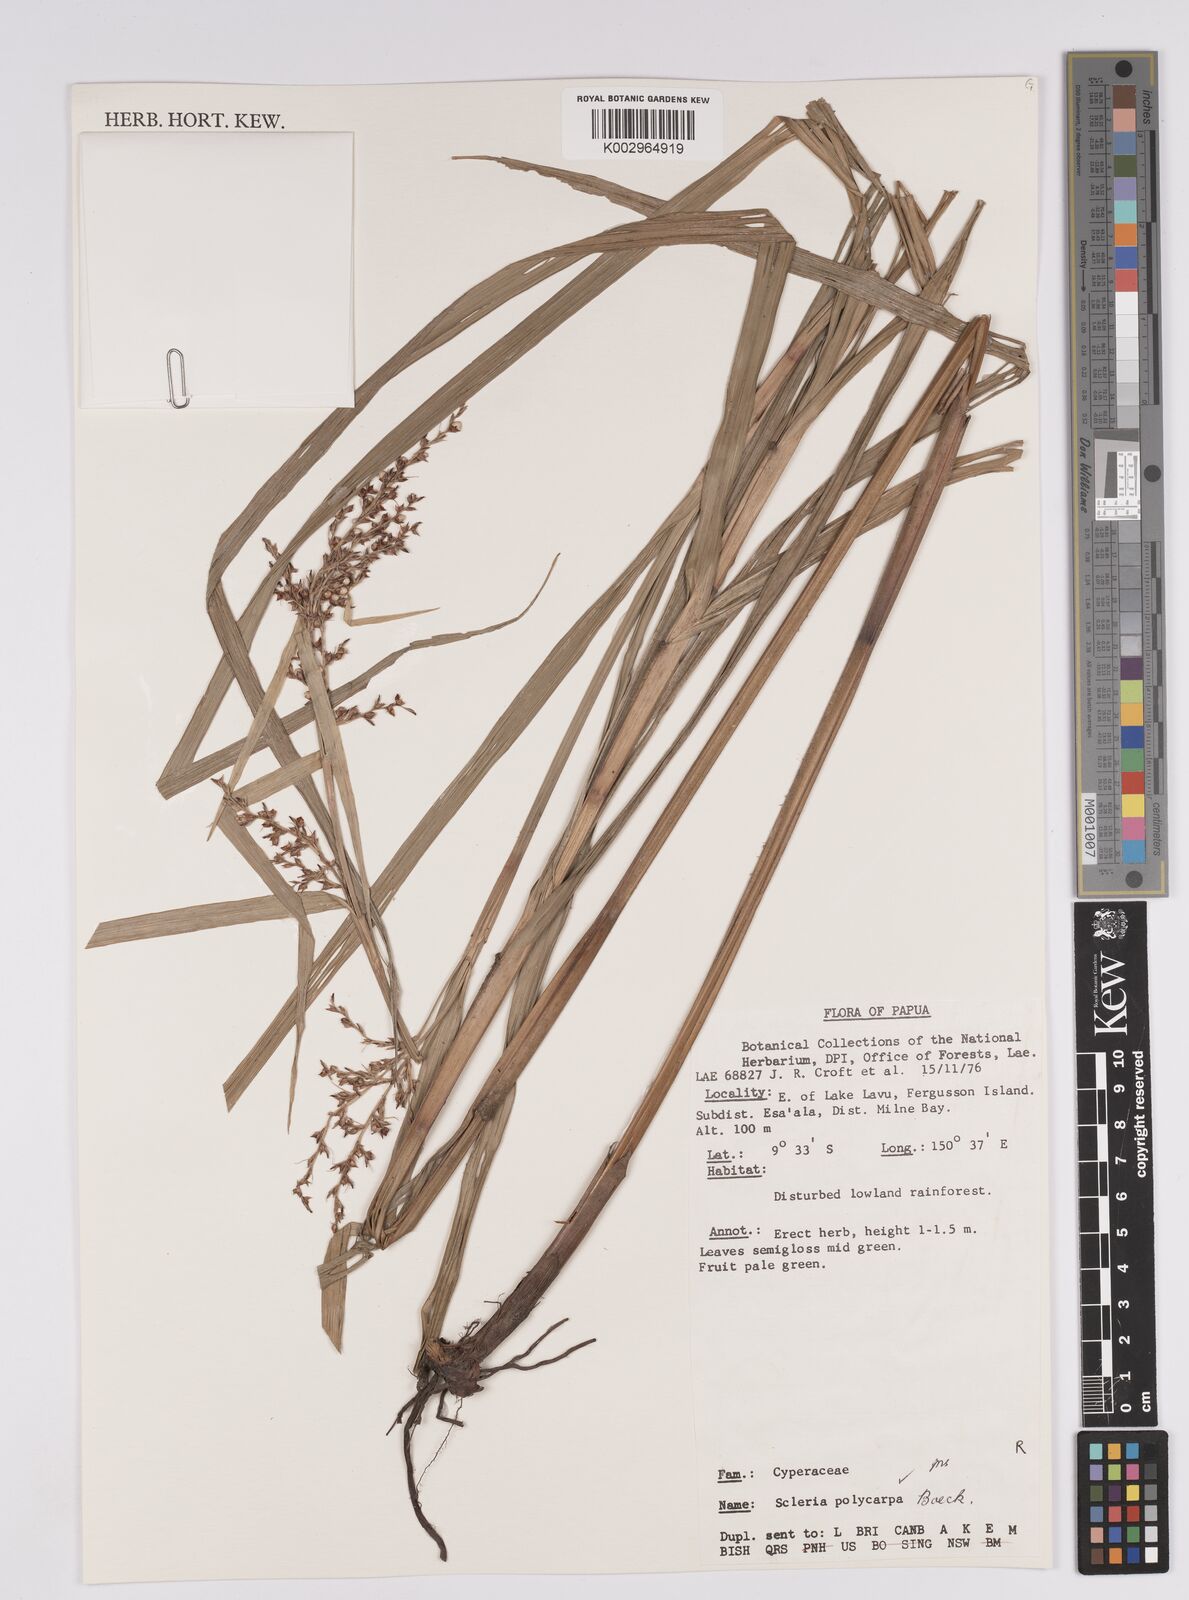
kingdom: Plantae
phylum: Tracheophyta
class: Liliopsida
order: Poales
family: Cyperaceae
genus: Scleria
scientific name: Scleria polycarpa
